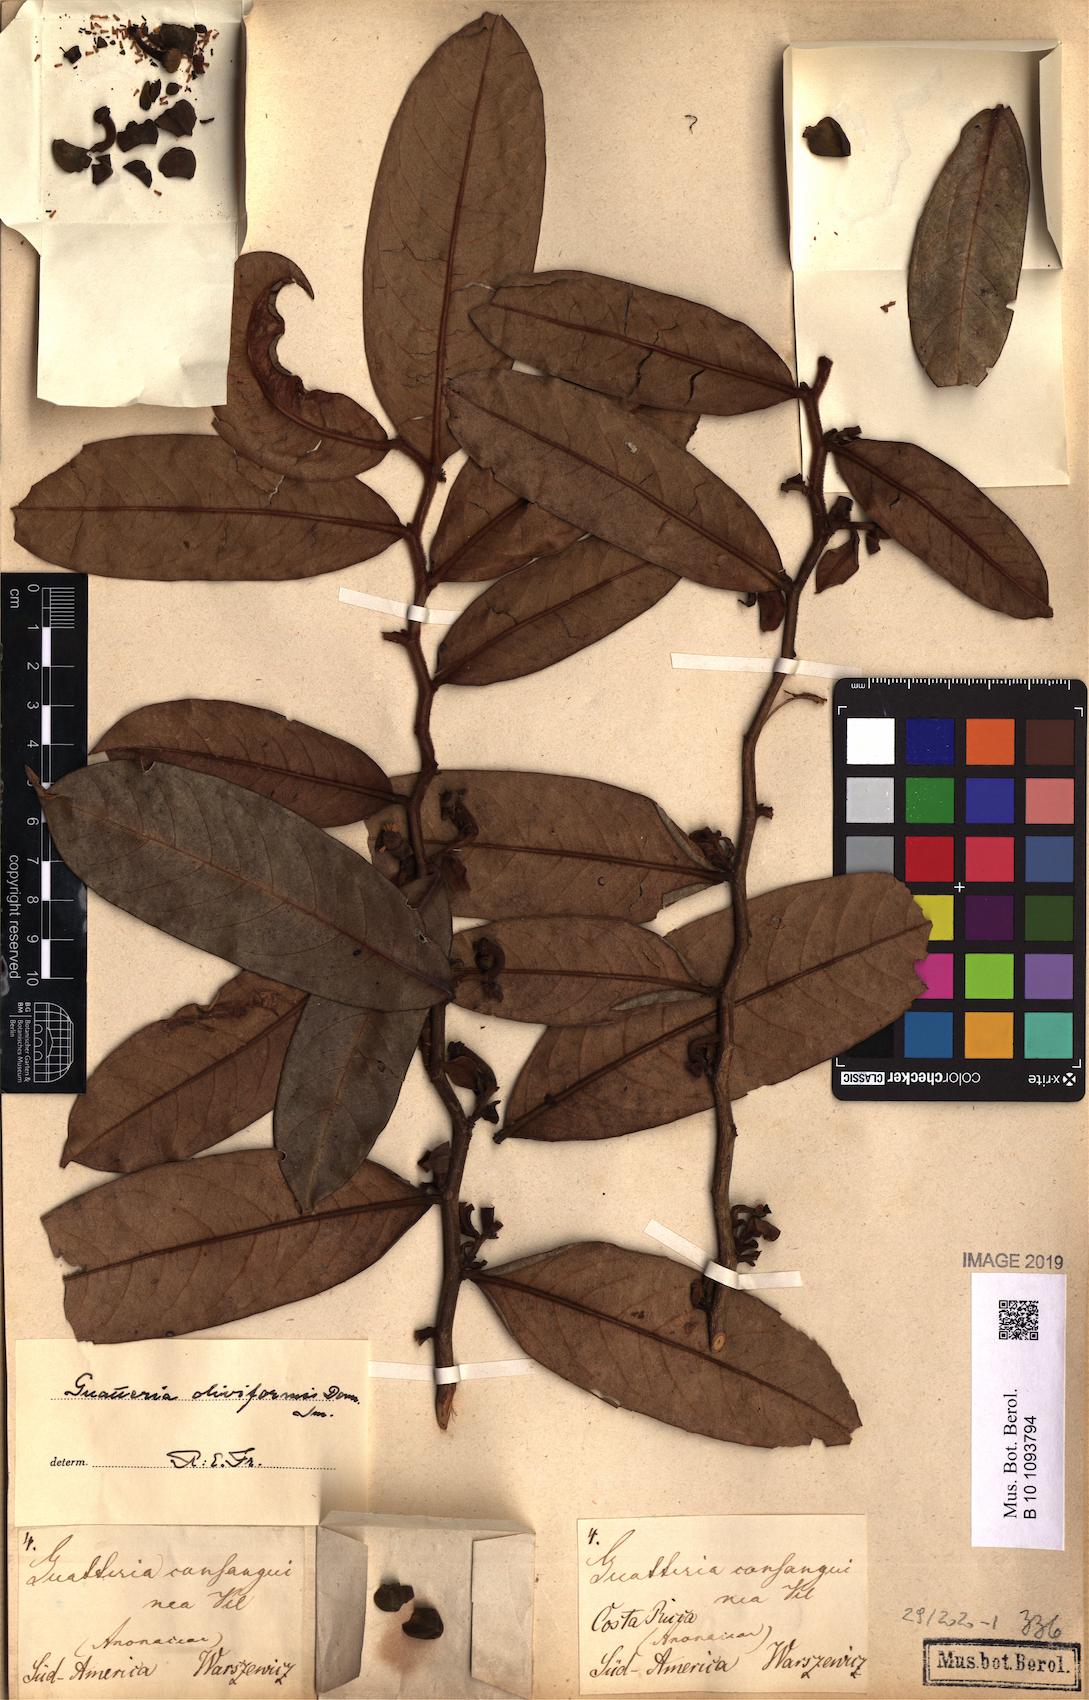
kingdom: Plantae
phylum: Tracheophyta
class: Magnoliopsida
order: Magnoliales
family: Annonaceae
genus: Guatteria
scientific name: Guatteria oliviformis
